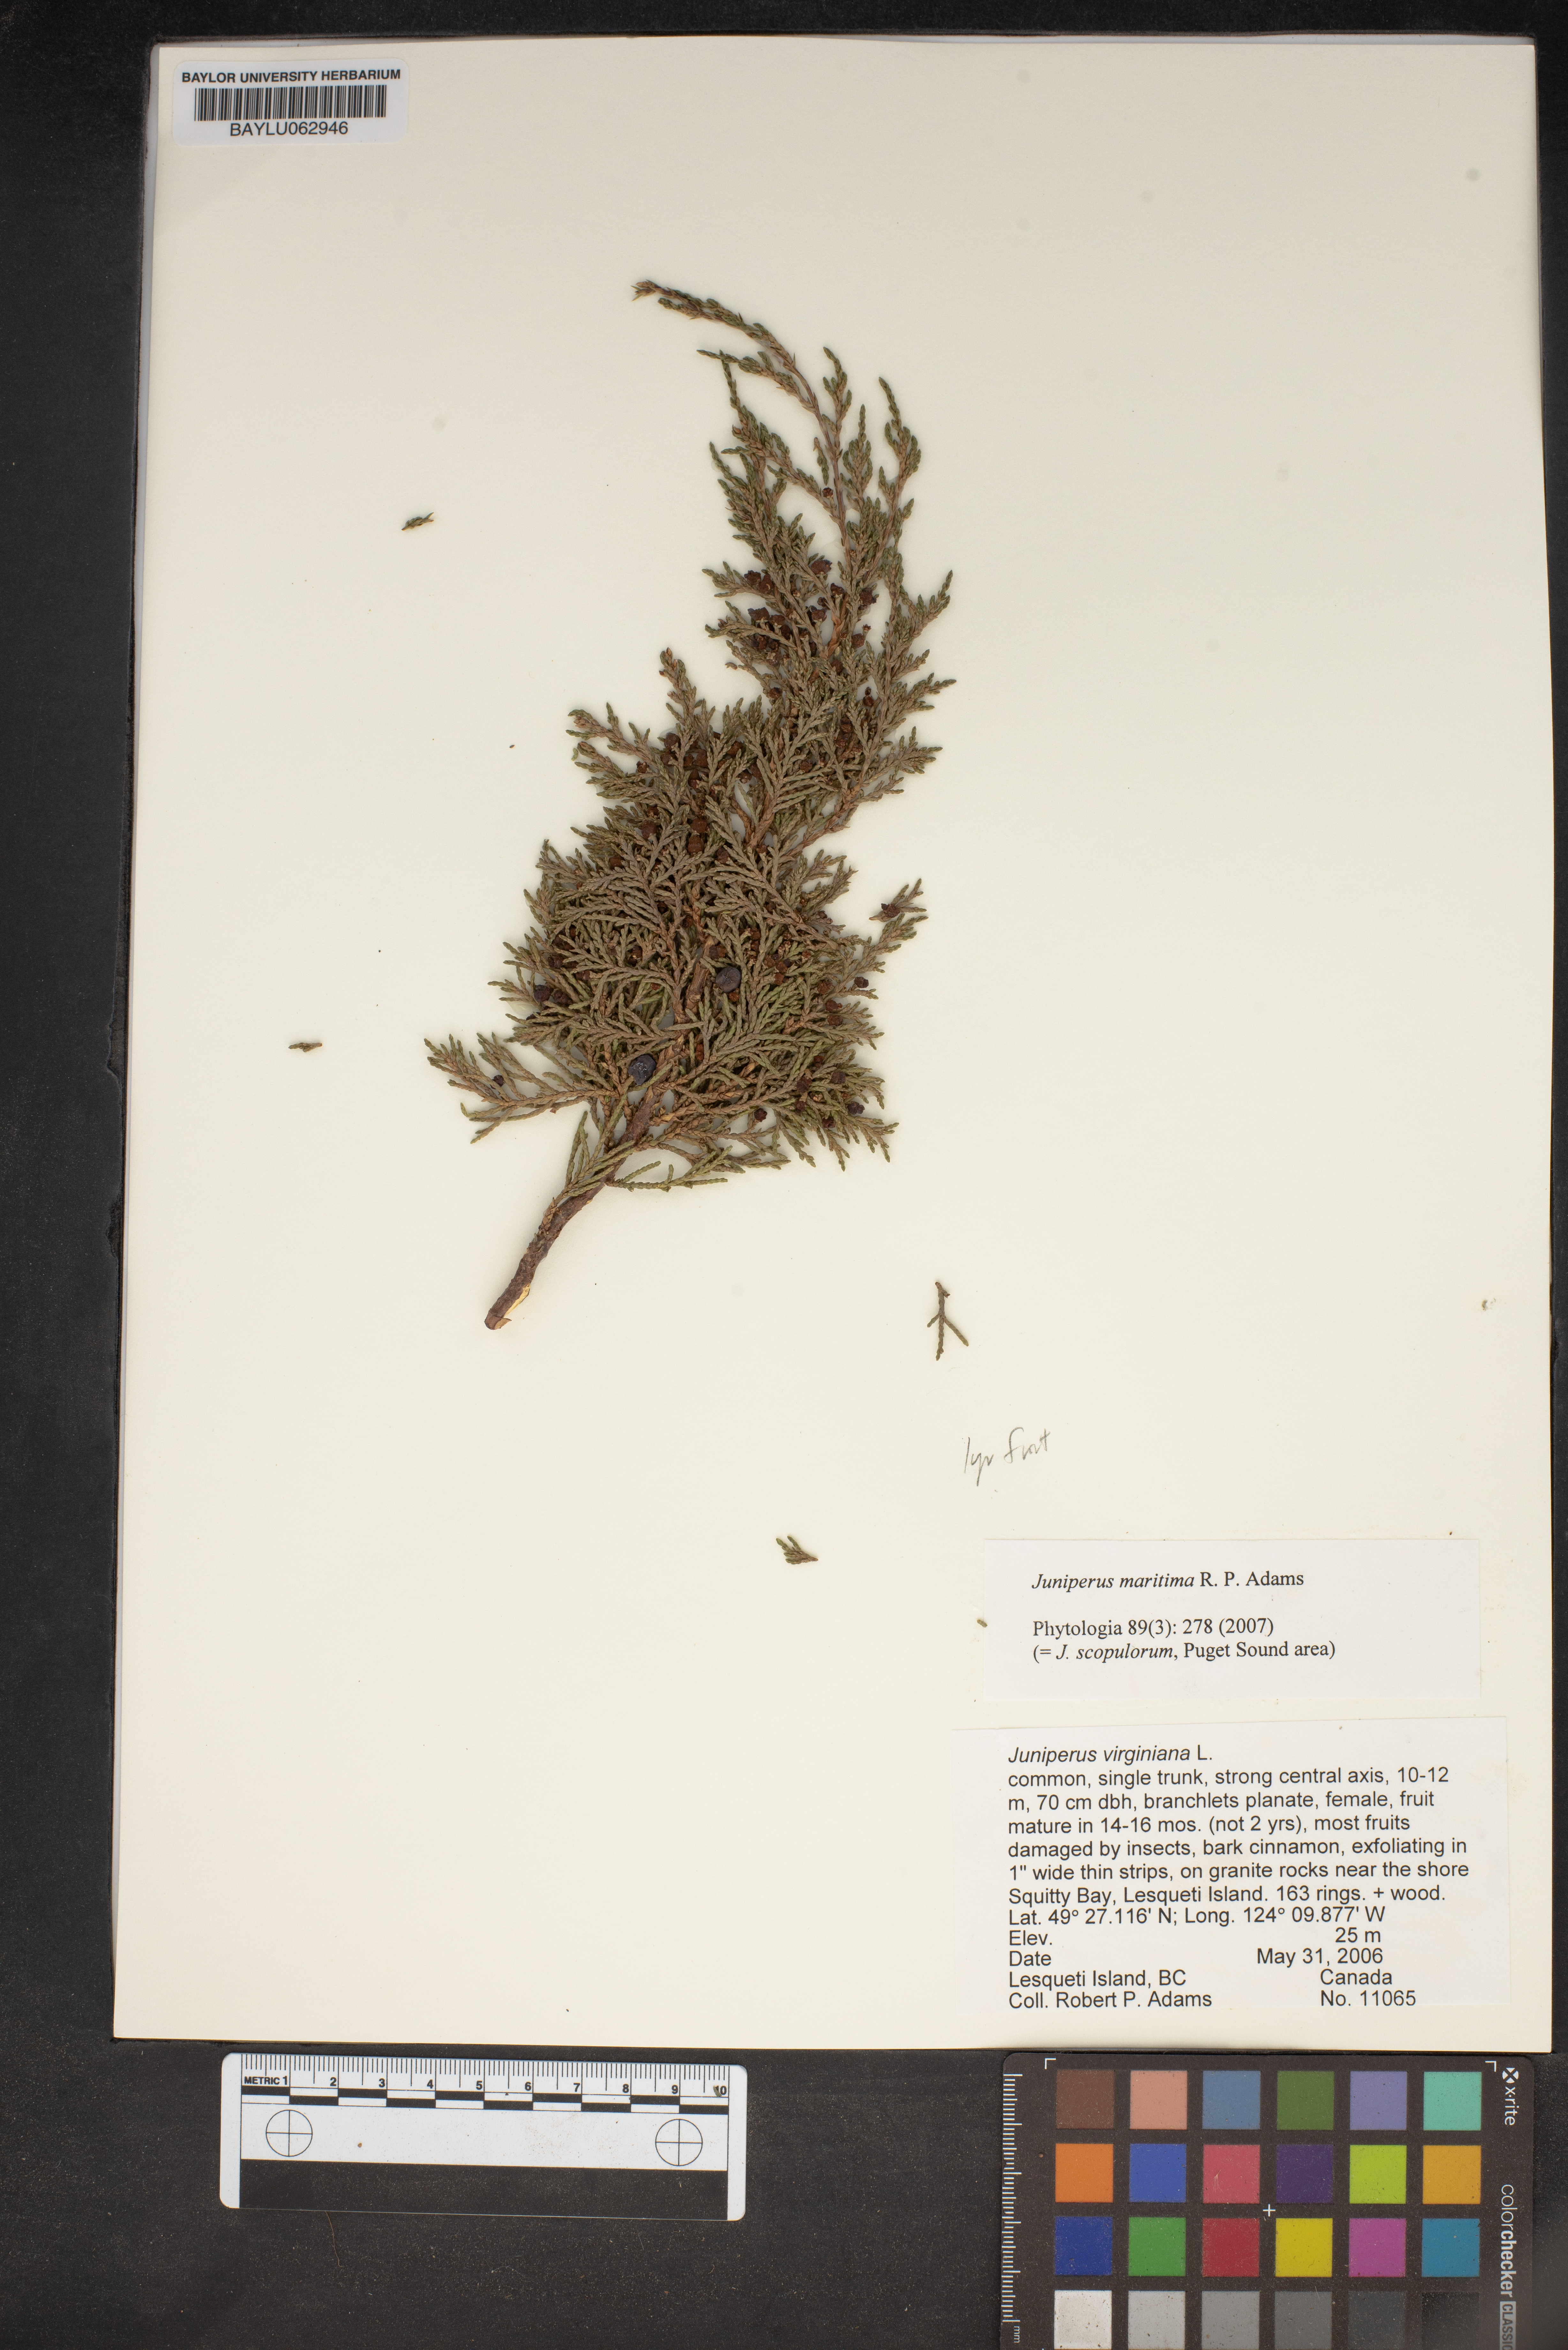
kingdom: Plantae
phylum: Tracheophyta
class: Pinopsida
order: Pinales
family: Cupressaceae
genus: Juniperus
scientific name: Juniperus virginiana
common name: Red juniper
